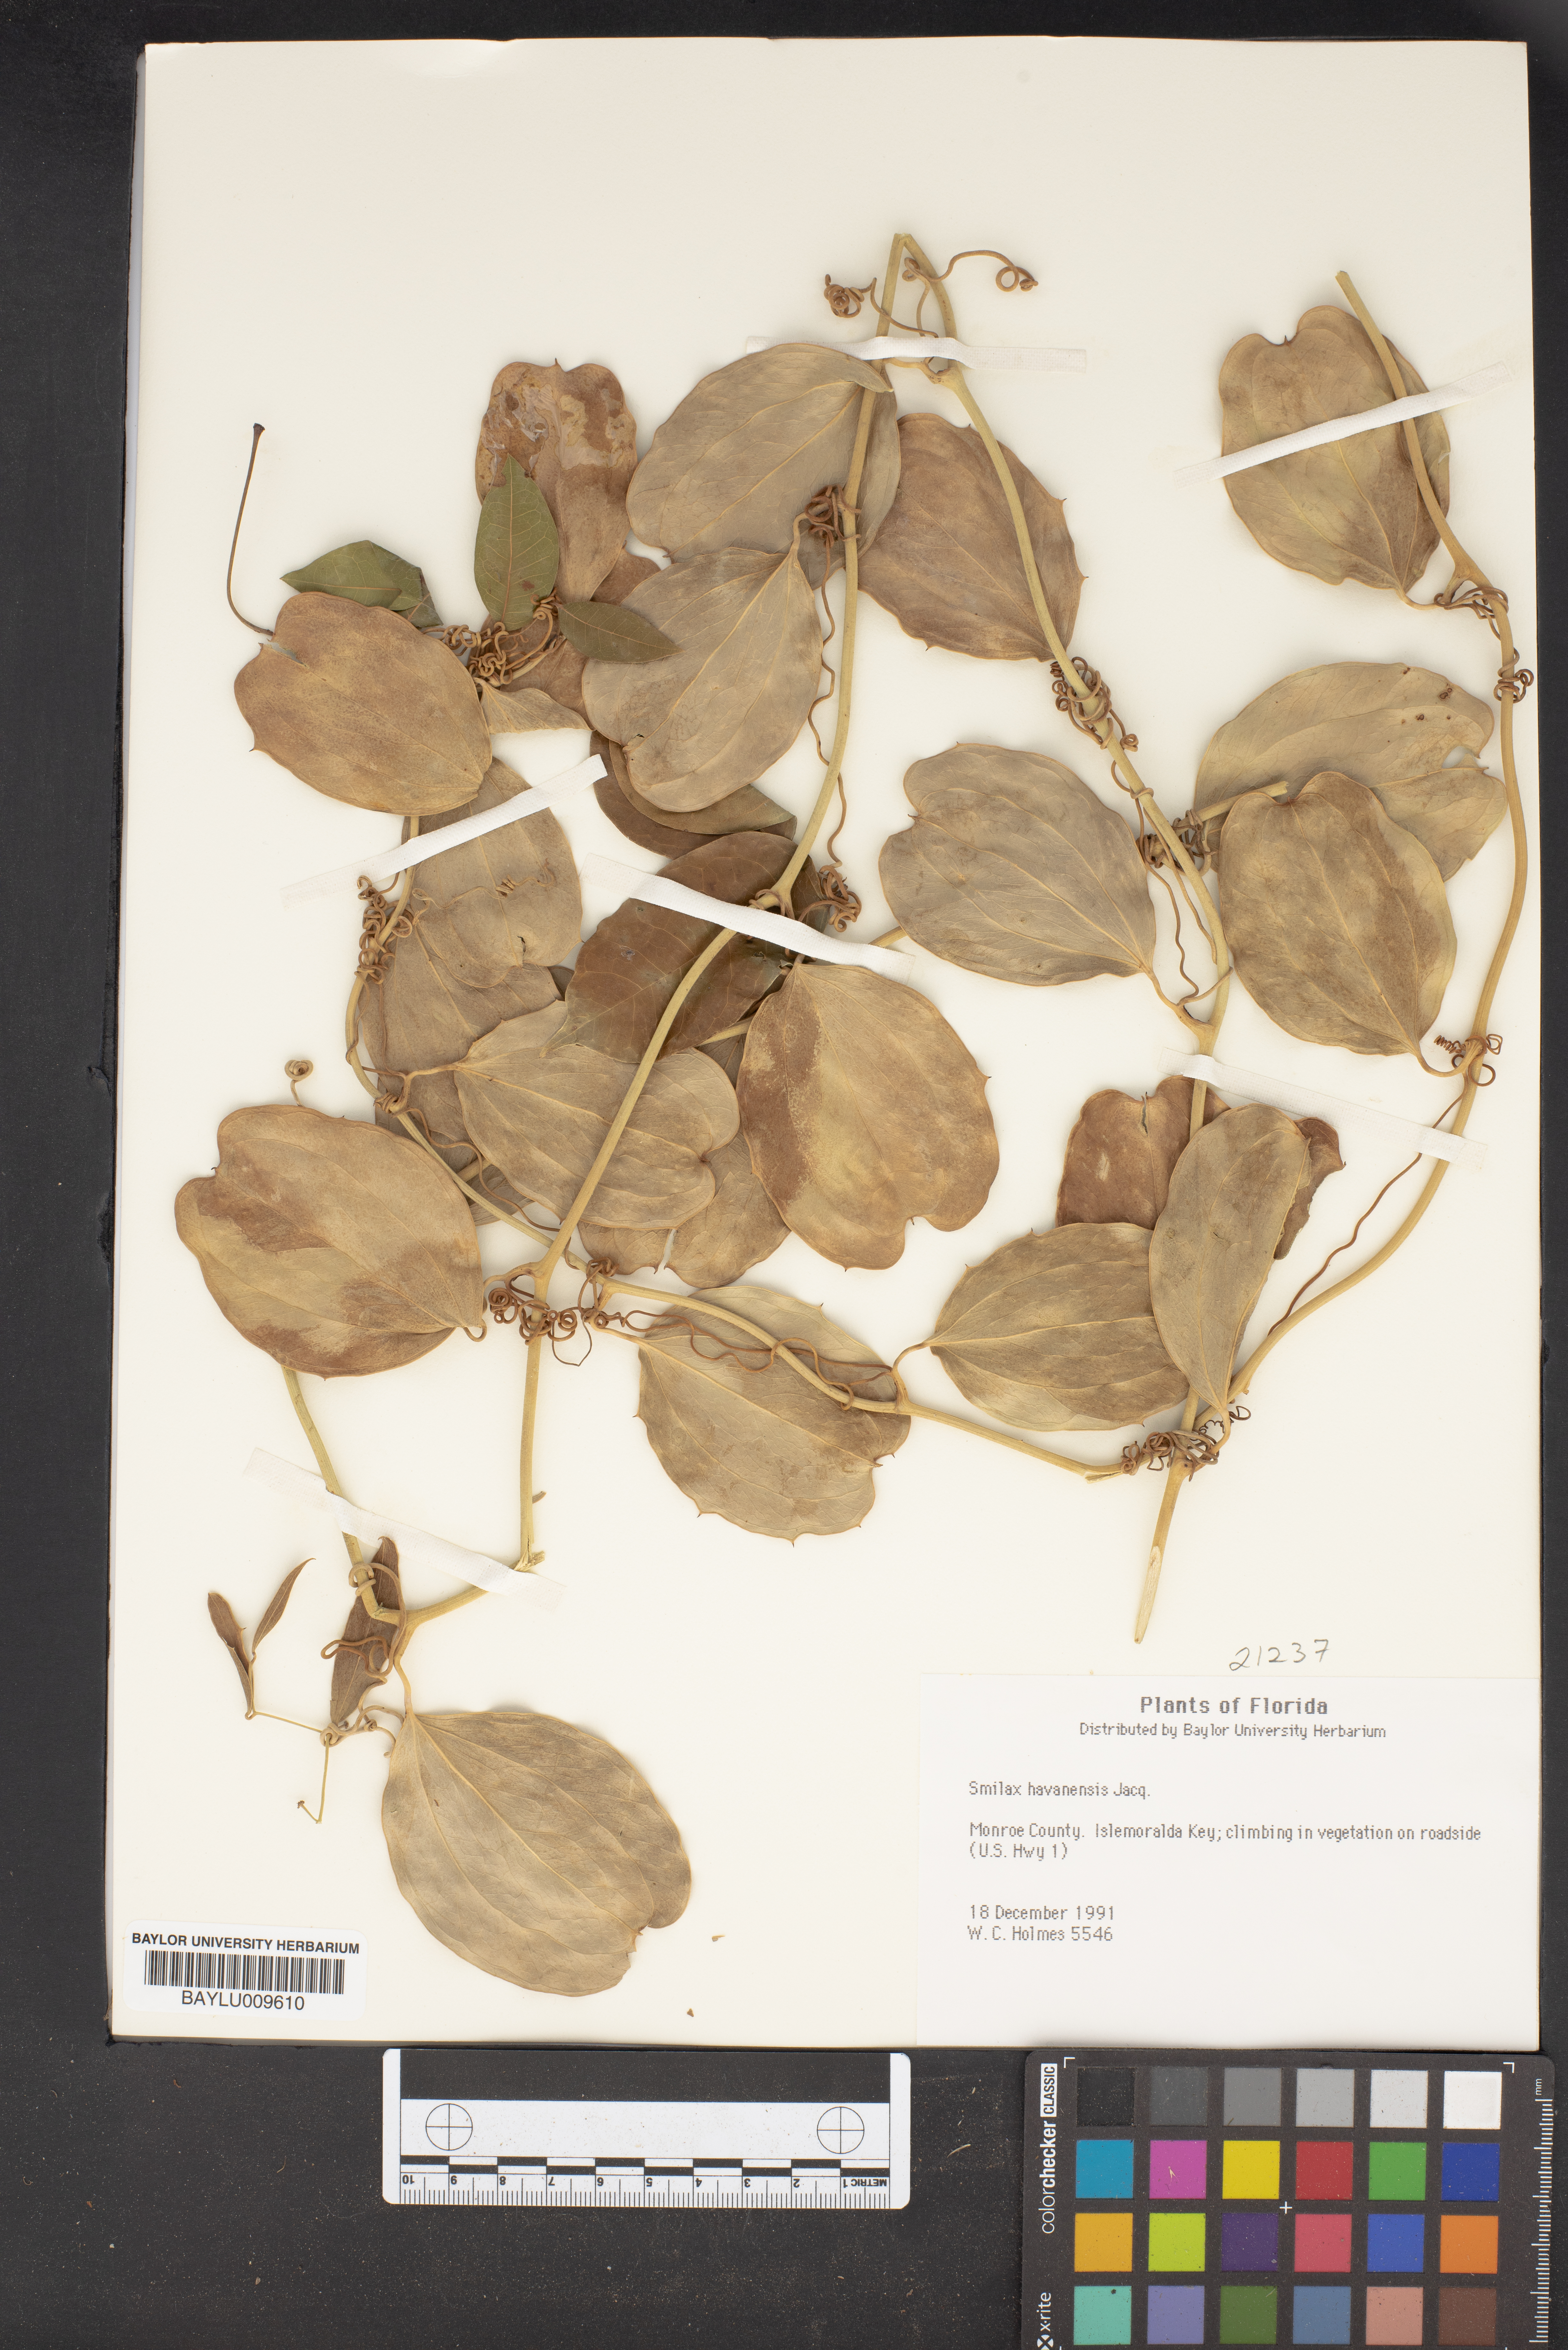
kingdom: Plantae
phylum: Tracheophyta
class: Liliopsida
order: Liliales
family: Smilacaceae
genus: Smilax
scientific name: Smilax havanensis
